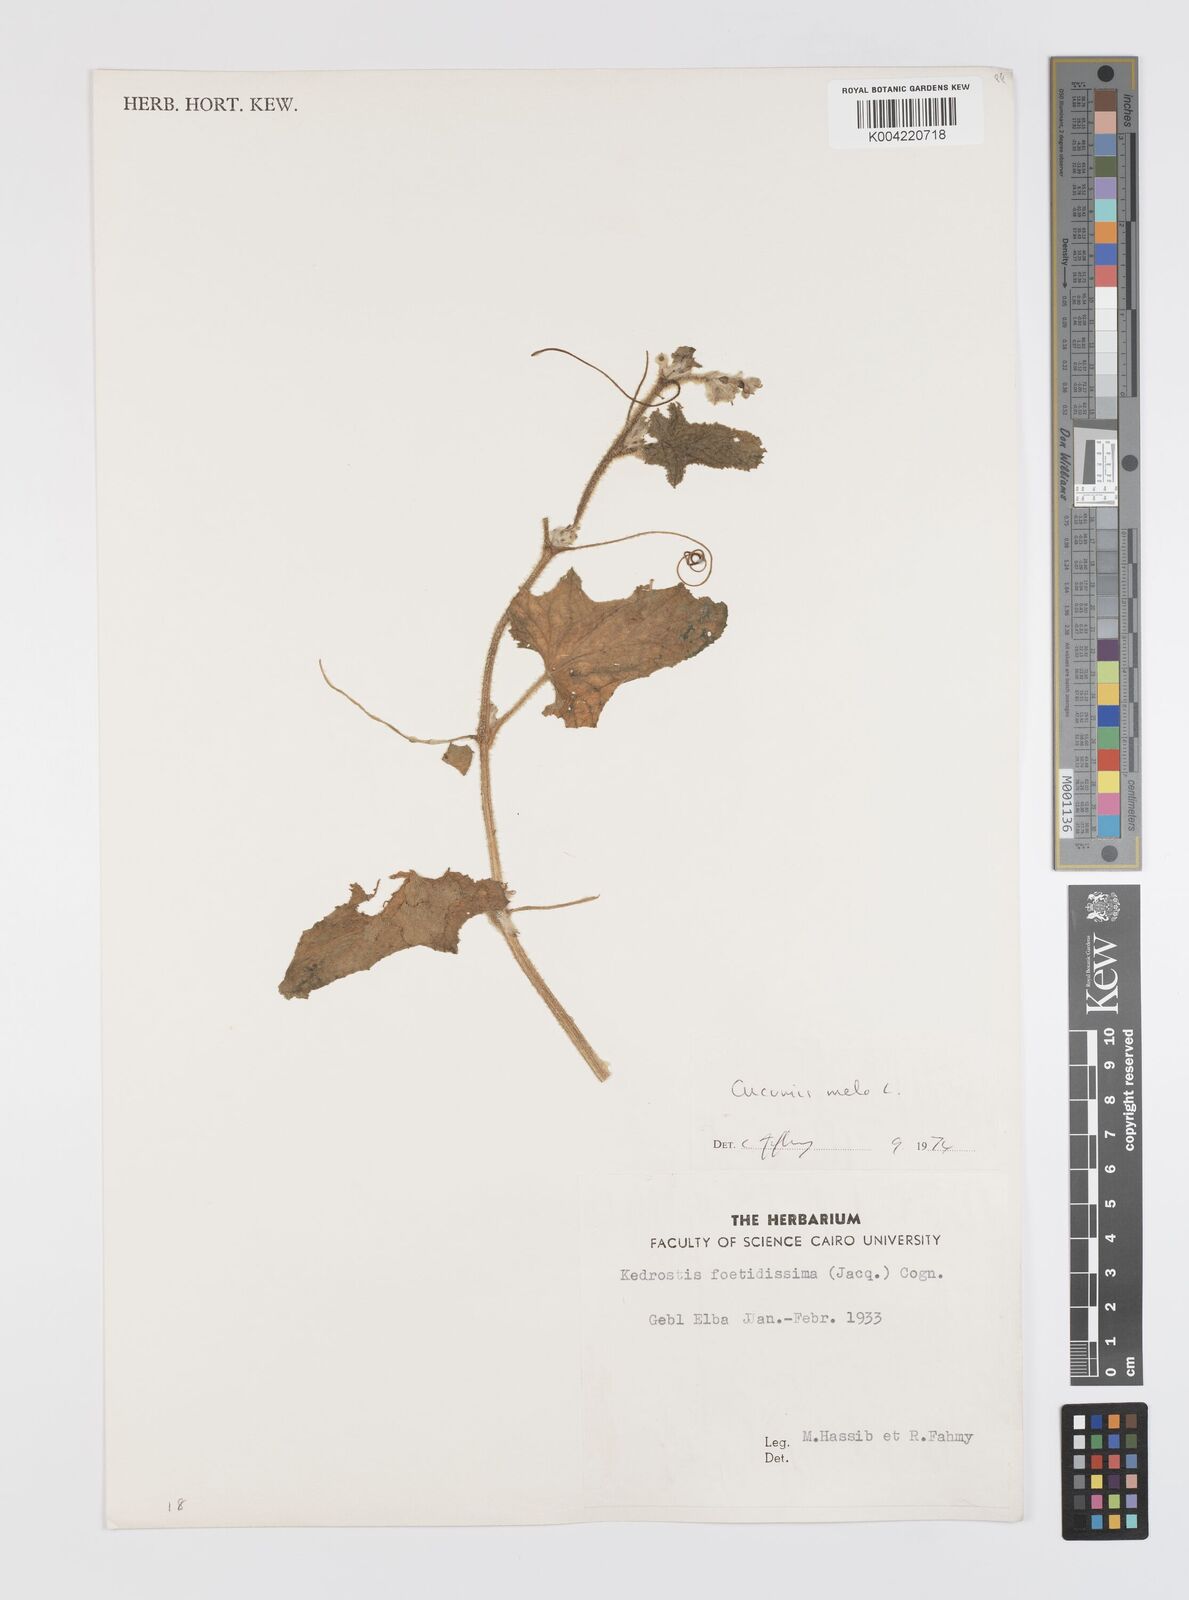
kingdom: Plantae
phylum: Tracheophyta
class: Magnoliopsida
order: Cucurbitales
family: Cucurbitaceae
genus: Cucumis
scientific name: Cucumis melo
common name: Melon
